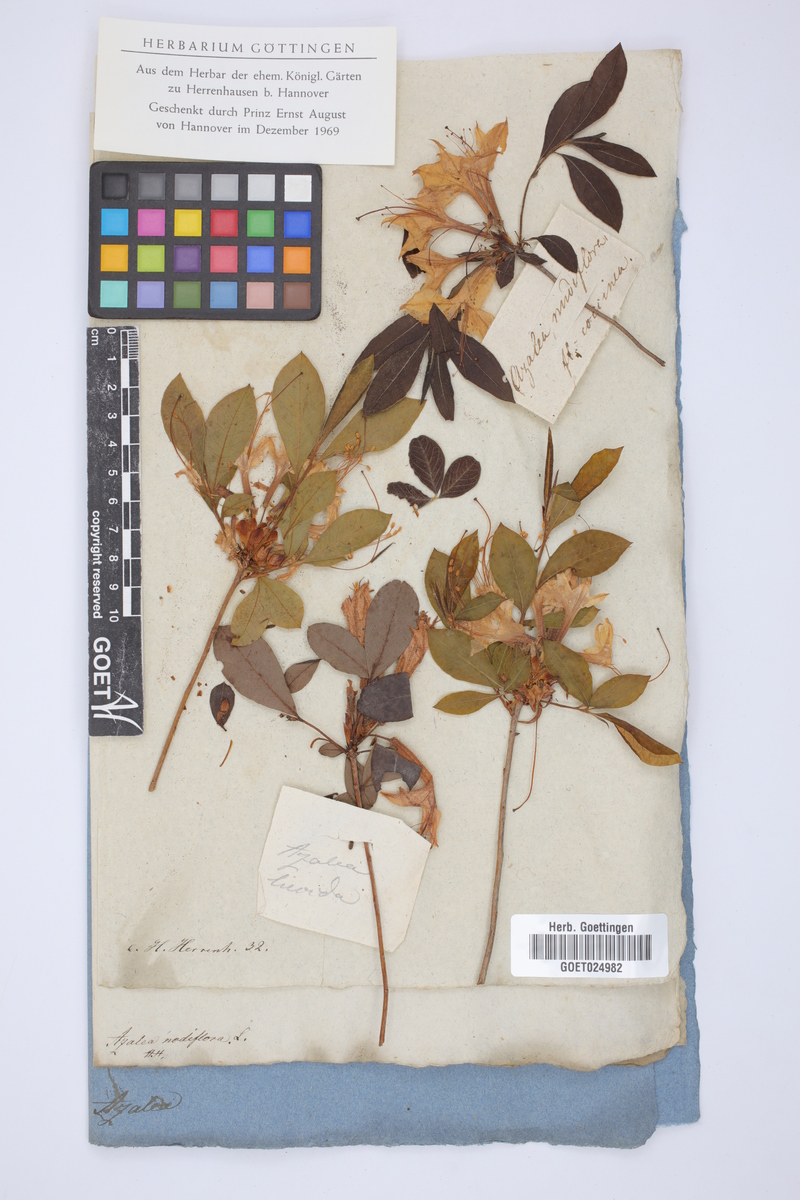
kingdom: Plantae
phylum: Tracheophyta
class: Magnoliopsida
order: Ericales
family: Ericaceae
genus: Rhododendron
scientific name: Rhododendron periclymenoides
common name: Election-pink
